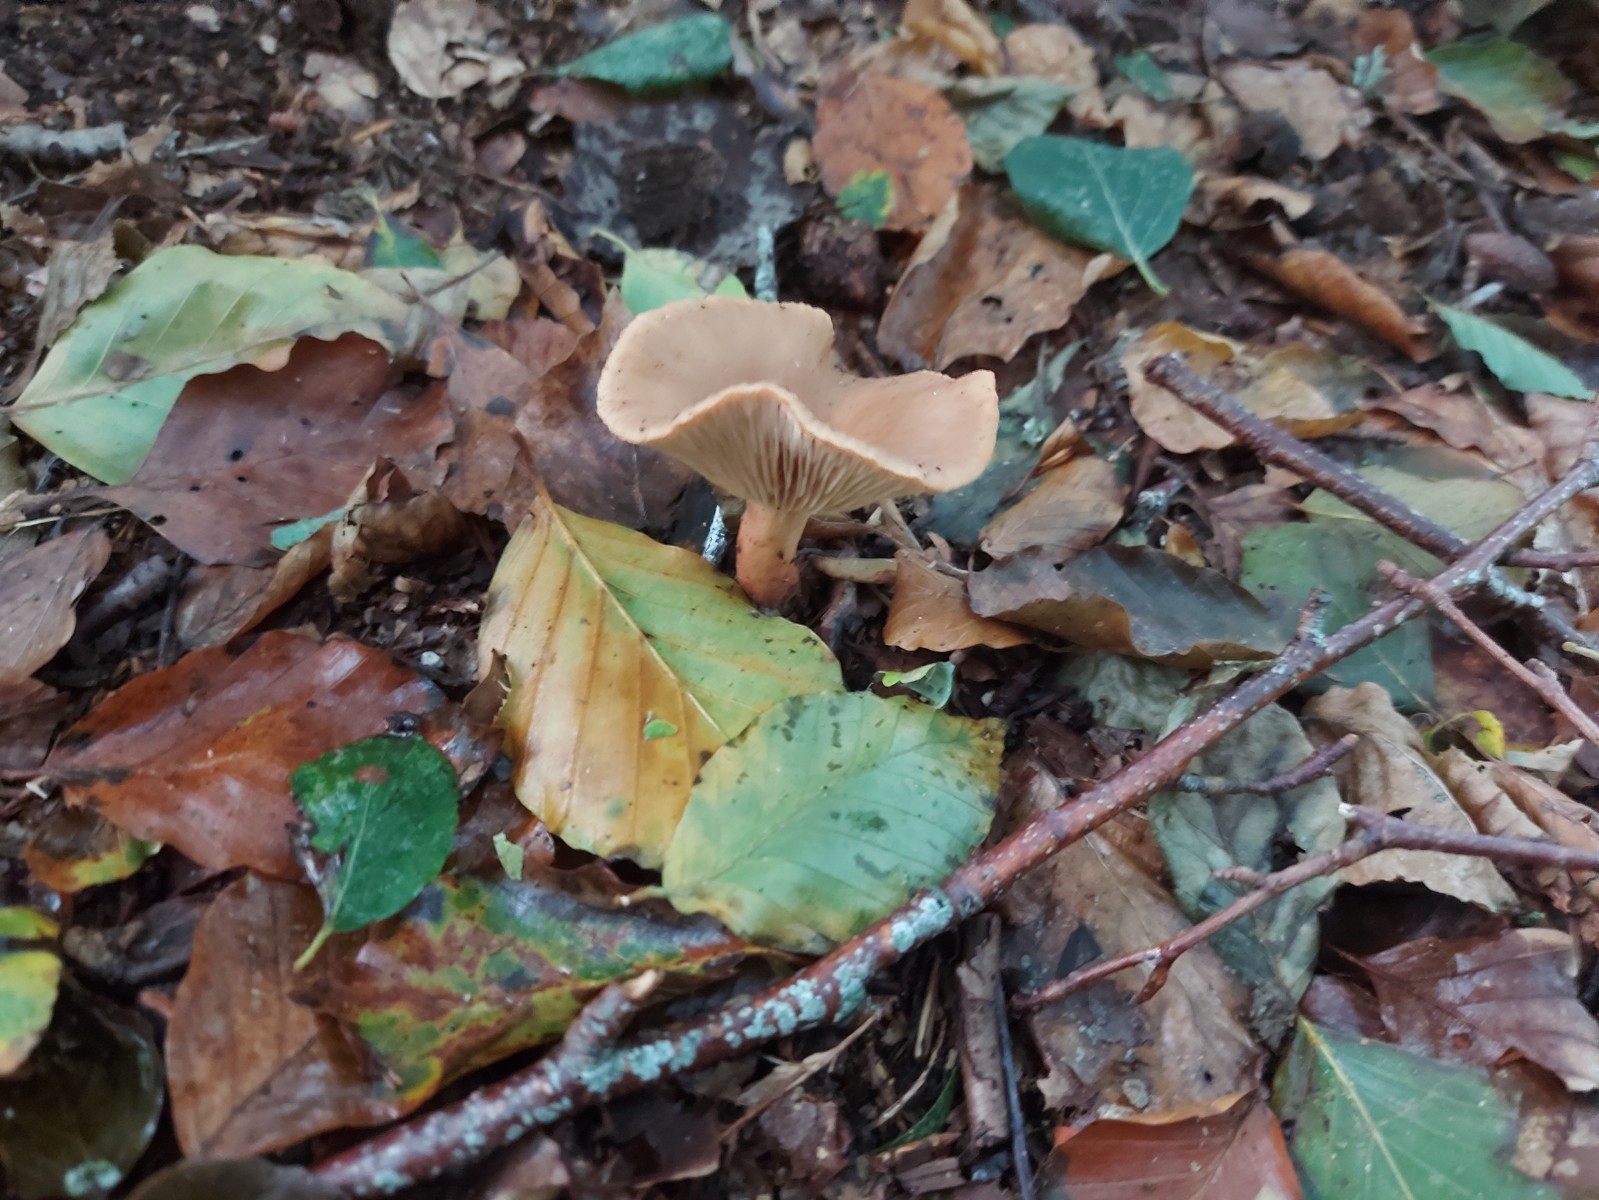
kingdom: Fungi
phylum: Basidiomycota
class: Agaricomycetes
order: Russulales
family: Russulaceae
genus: Lactarius
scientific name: Lactarius subdulcis
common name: sødlig mælkehat
